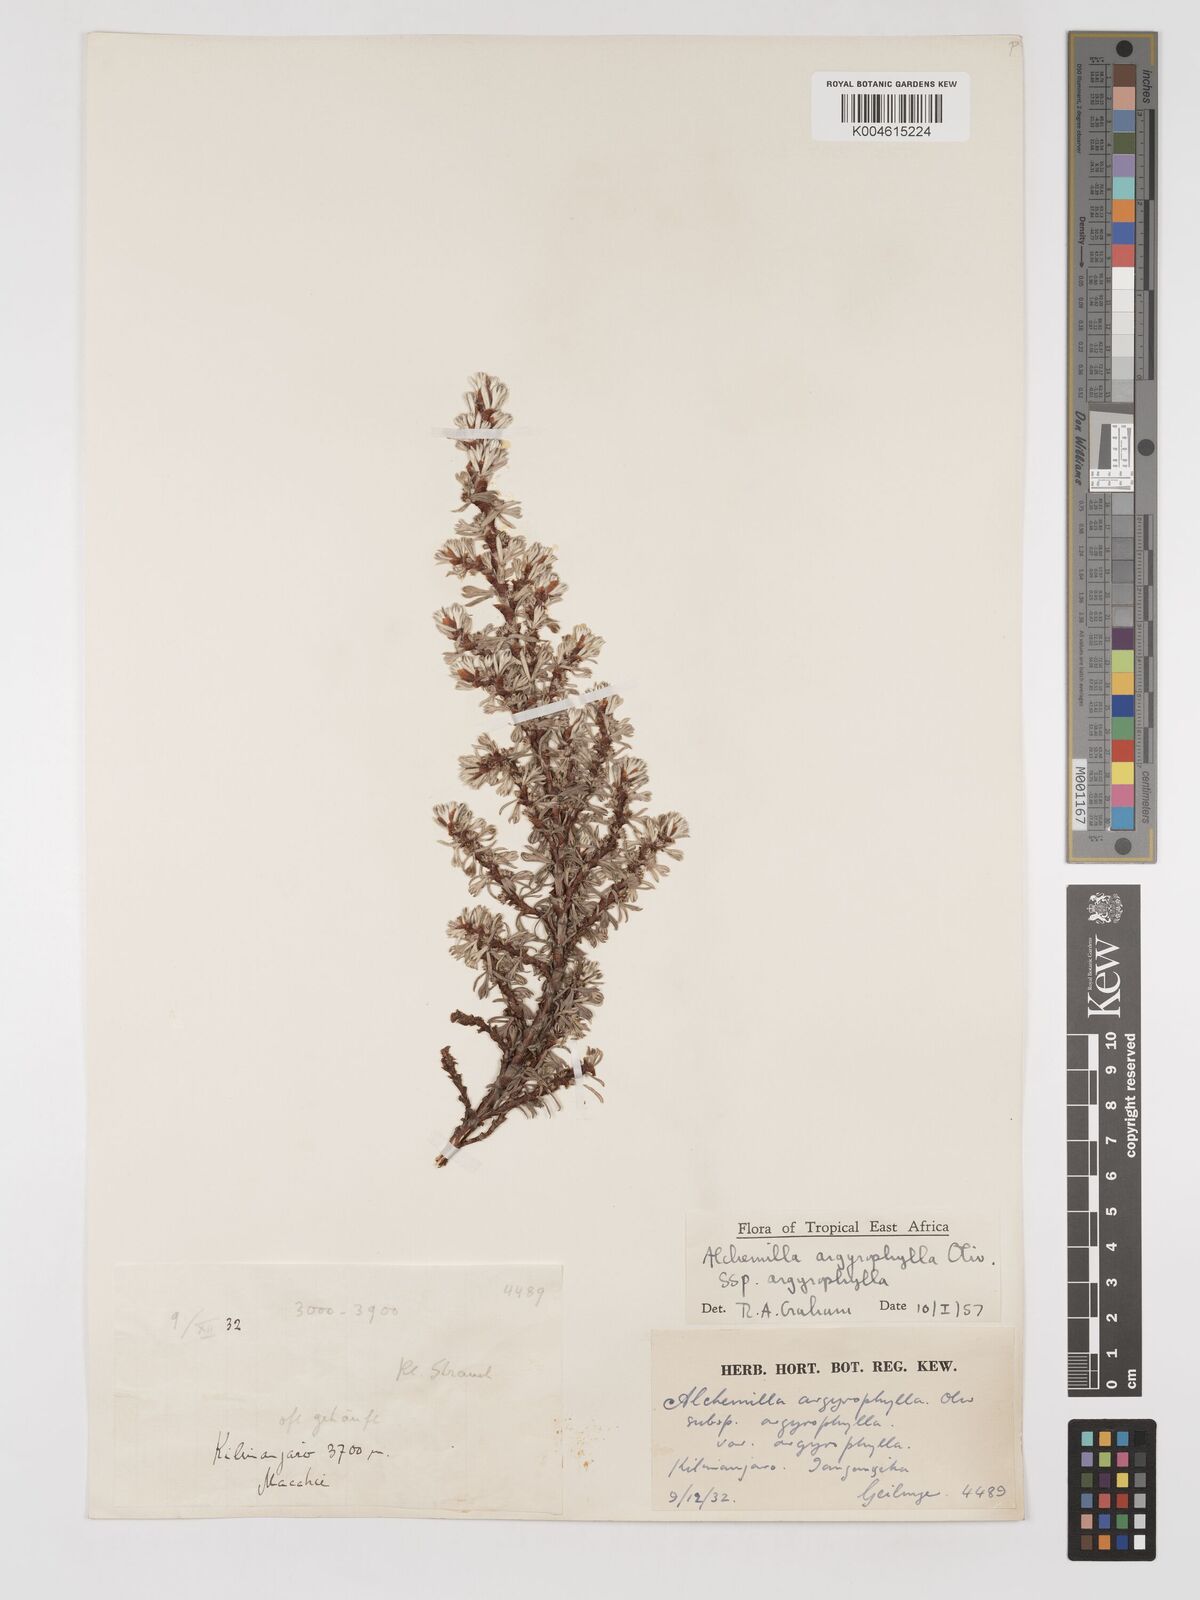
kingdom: Plantae
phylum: Tracheophyta
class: Magnoliopsida
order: Rosales
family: Rosaceae
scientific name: Rosaceae
